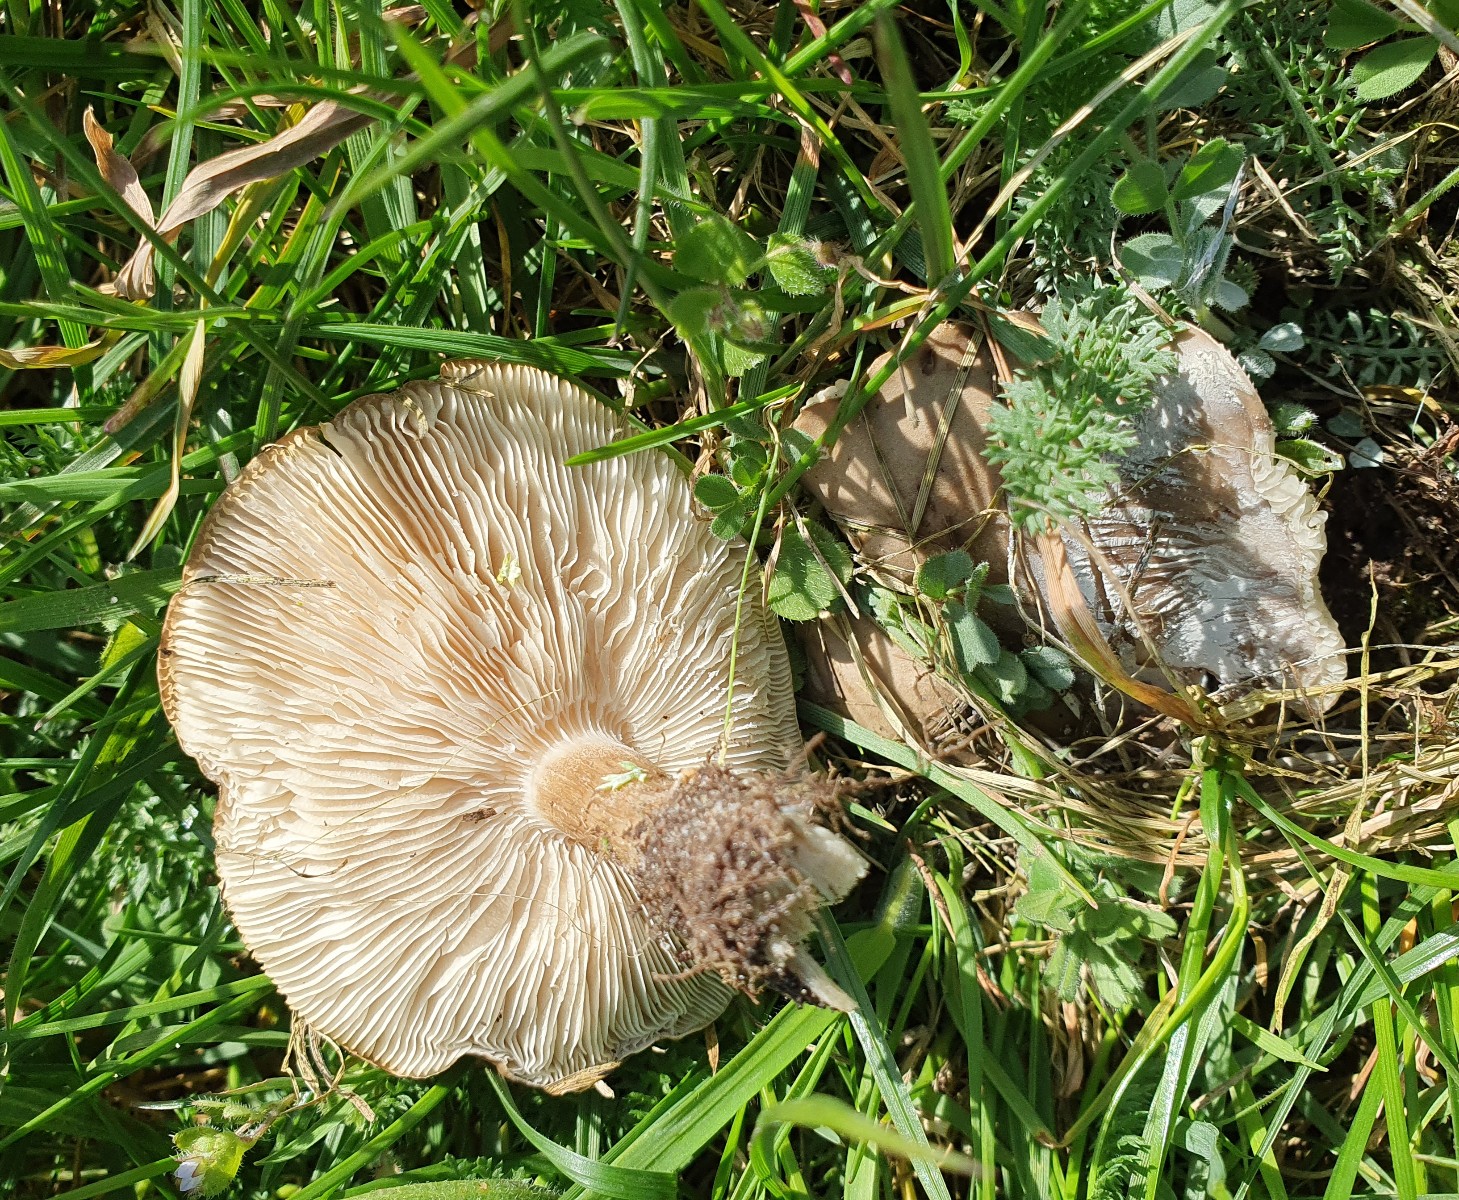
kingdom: Fungi
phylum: Basidiomycota
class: Agaricomycetes
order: Agaricales
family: Tricholomataceae
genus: Melanoleuca
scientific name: Melanoleuca
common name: munkehat
